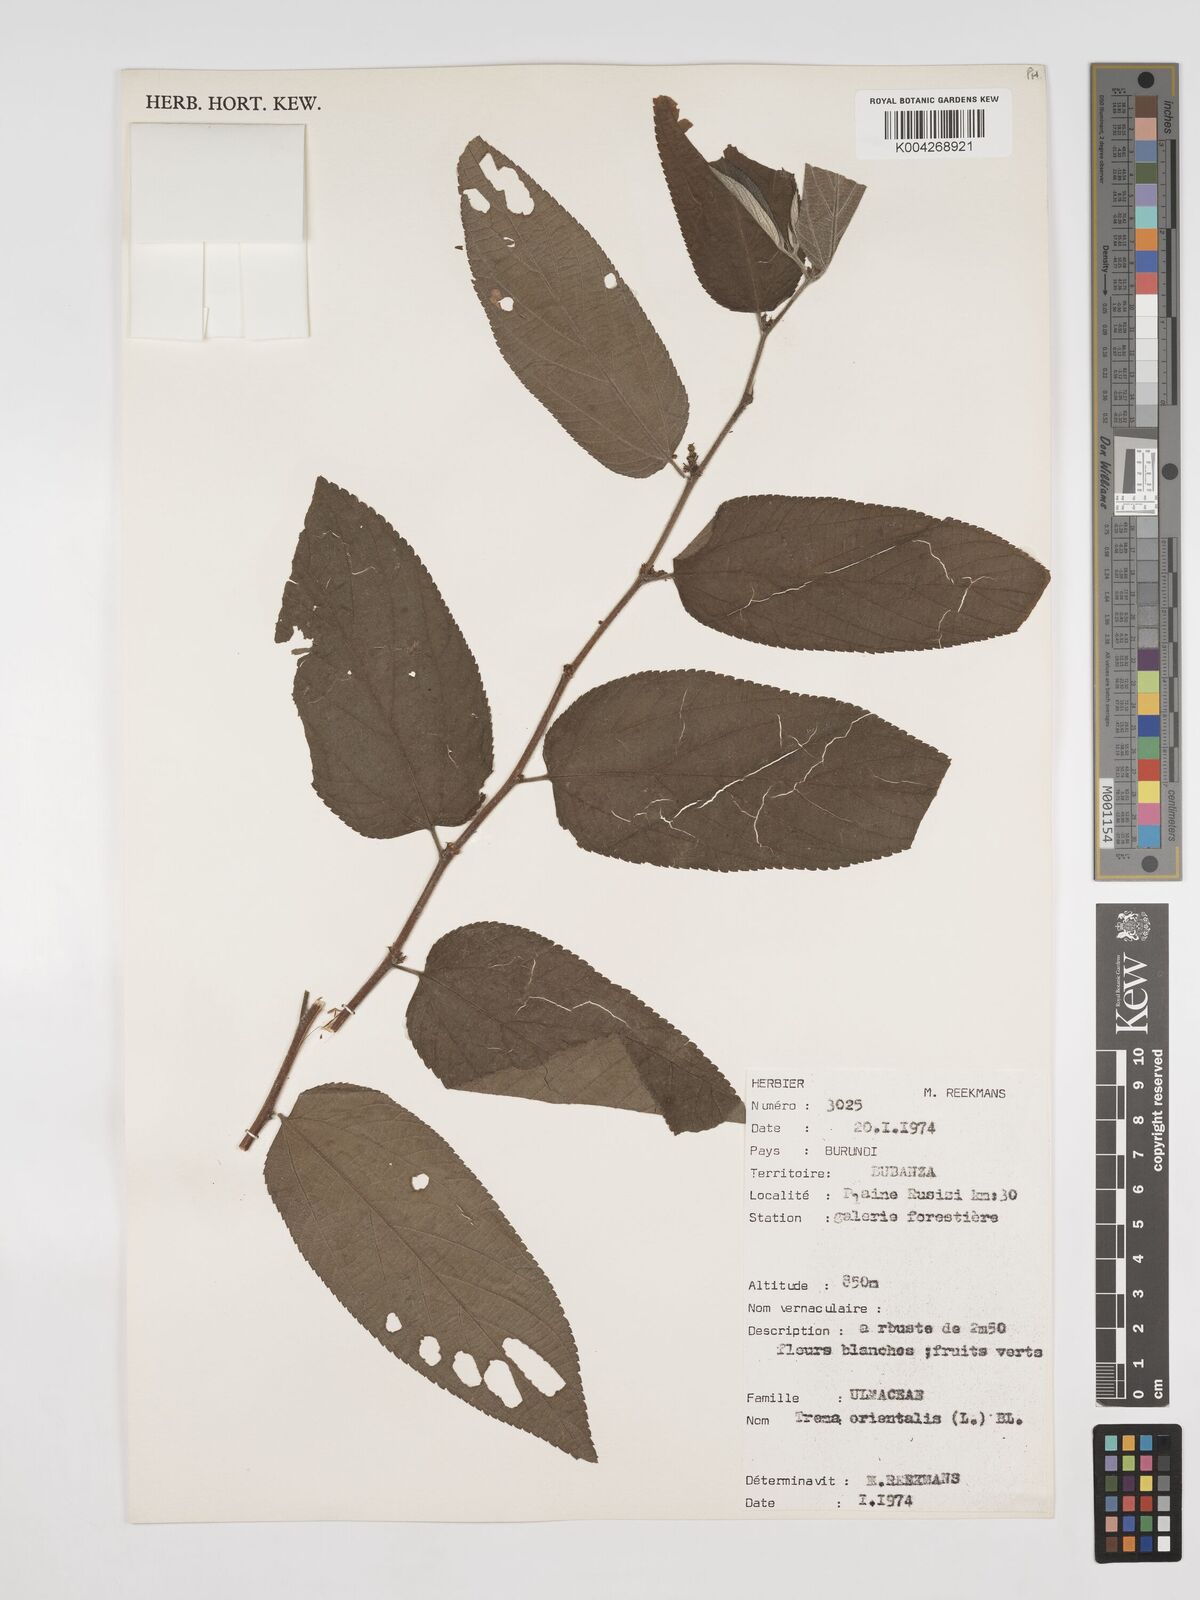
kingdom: Plantae
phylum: Tracheophyta
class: Magnoliopsida
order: Rosales
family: Cannabaceae
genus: Trema
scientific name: Trema orientale
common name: Indian charcoal tree
